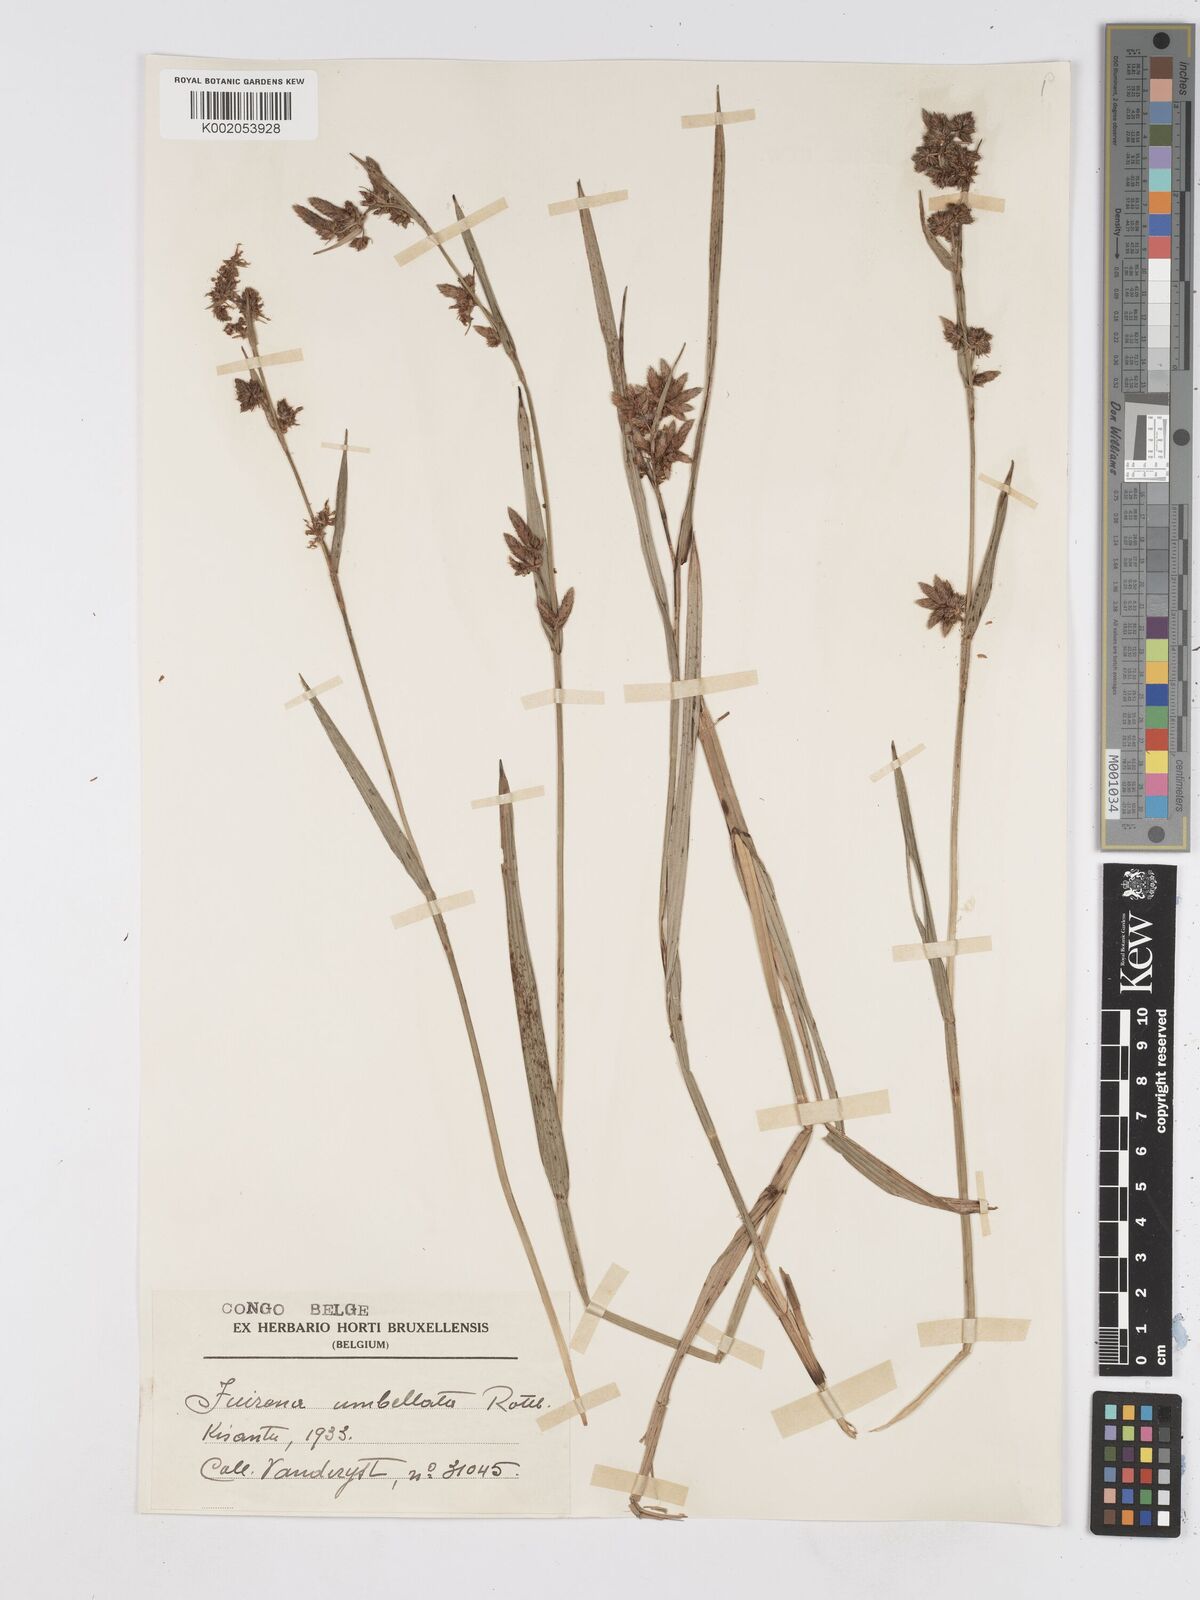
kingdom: Plantae
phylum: Tracheophyta
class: Liliopsida
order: Poales
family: Cyperaceae
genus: Fuirena
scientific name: Fuirena umbellata
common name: Yefen
